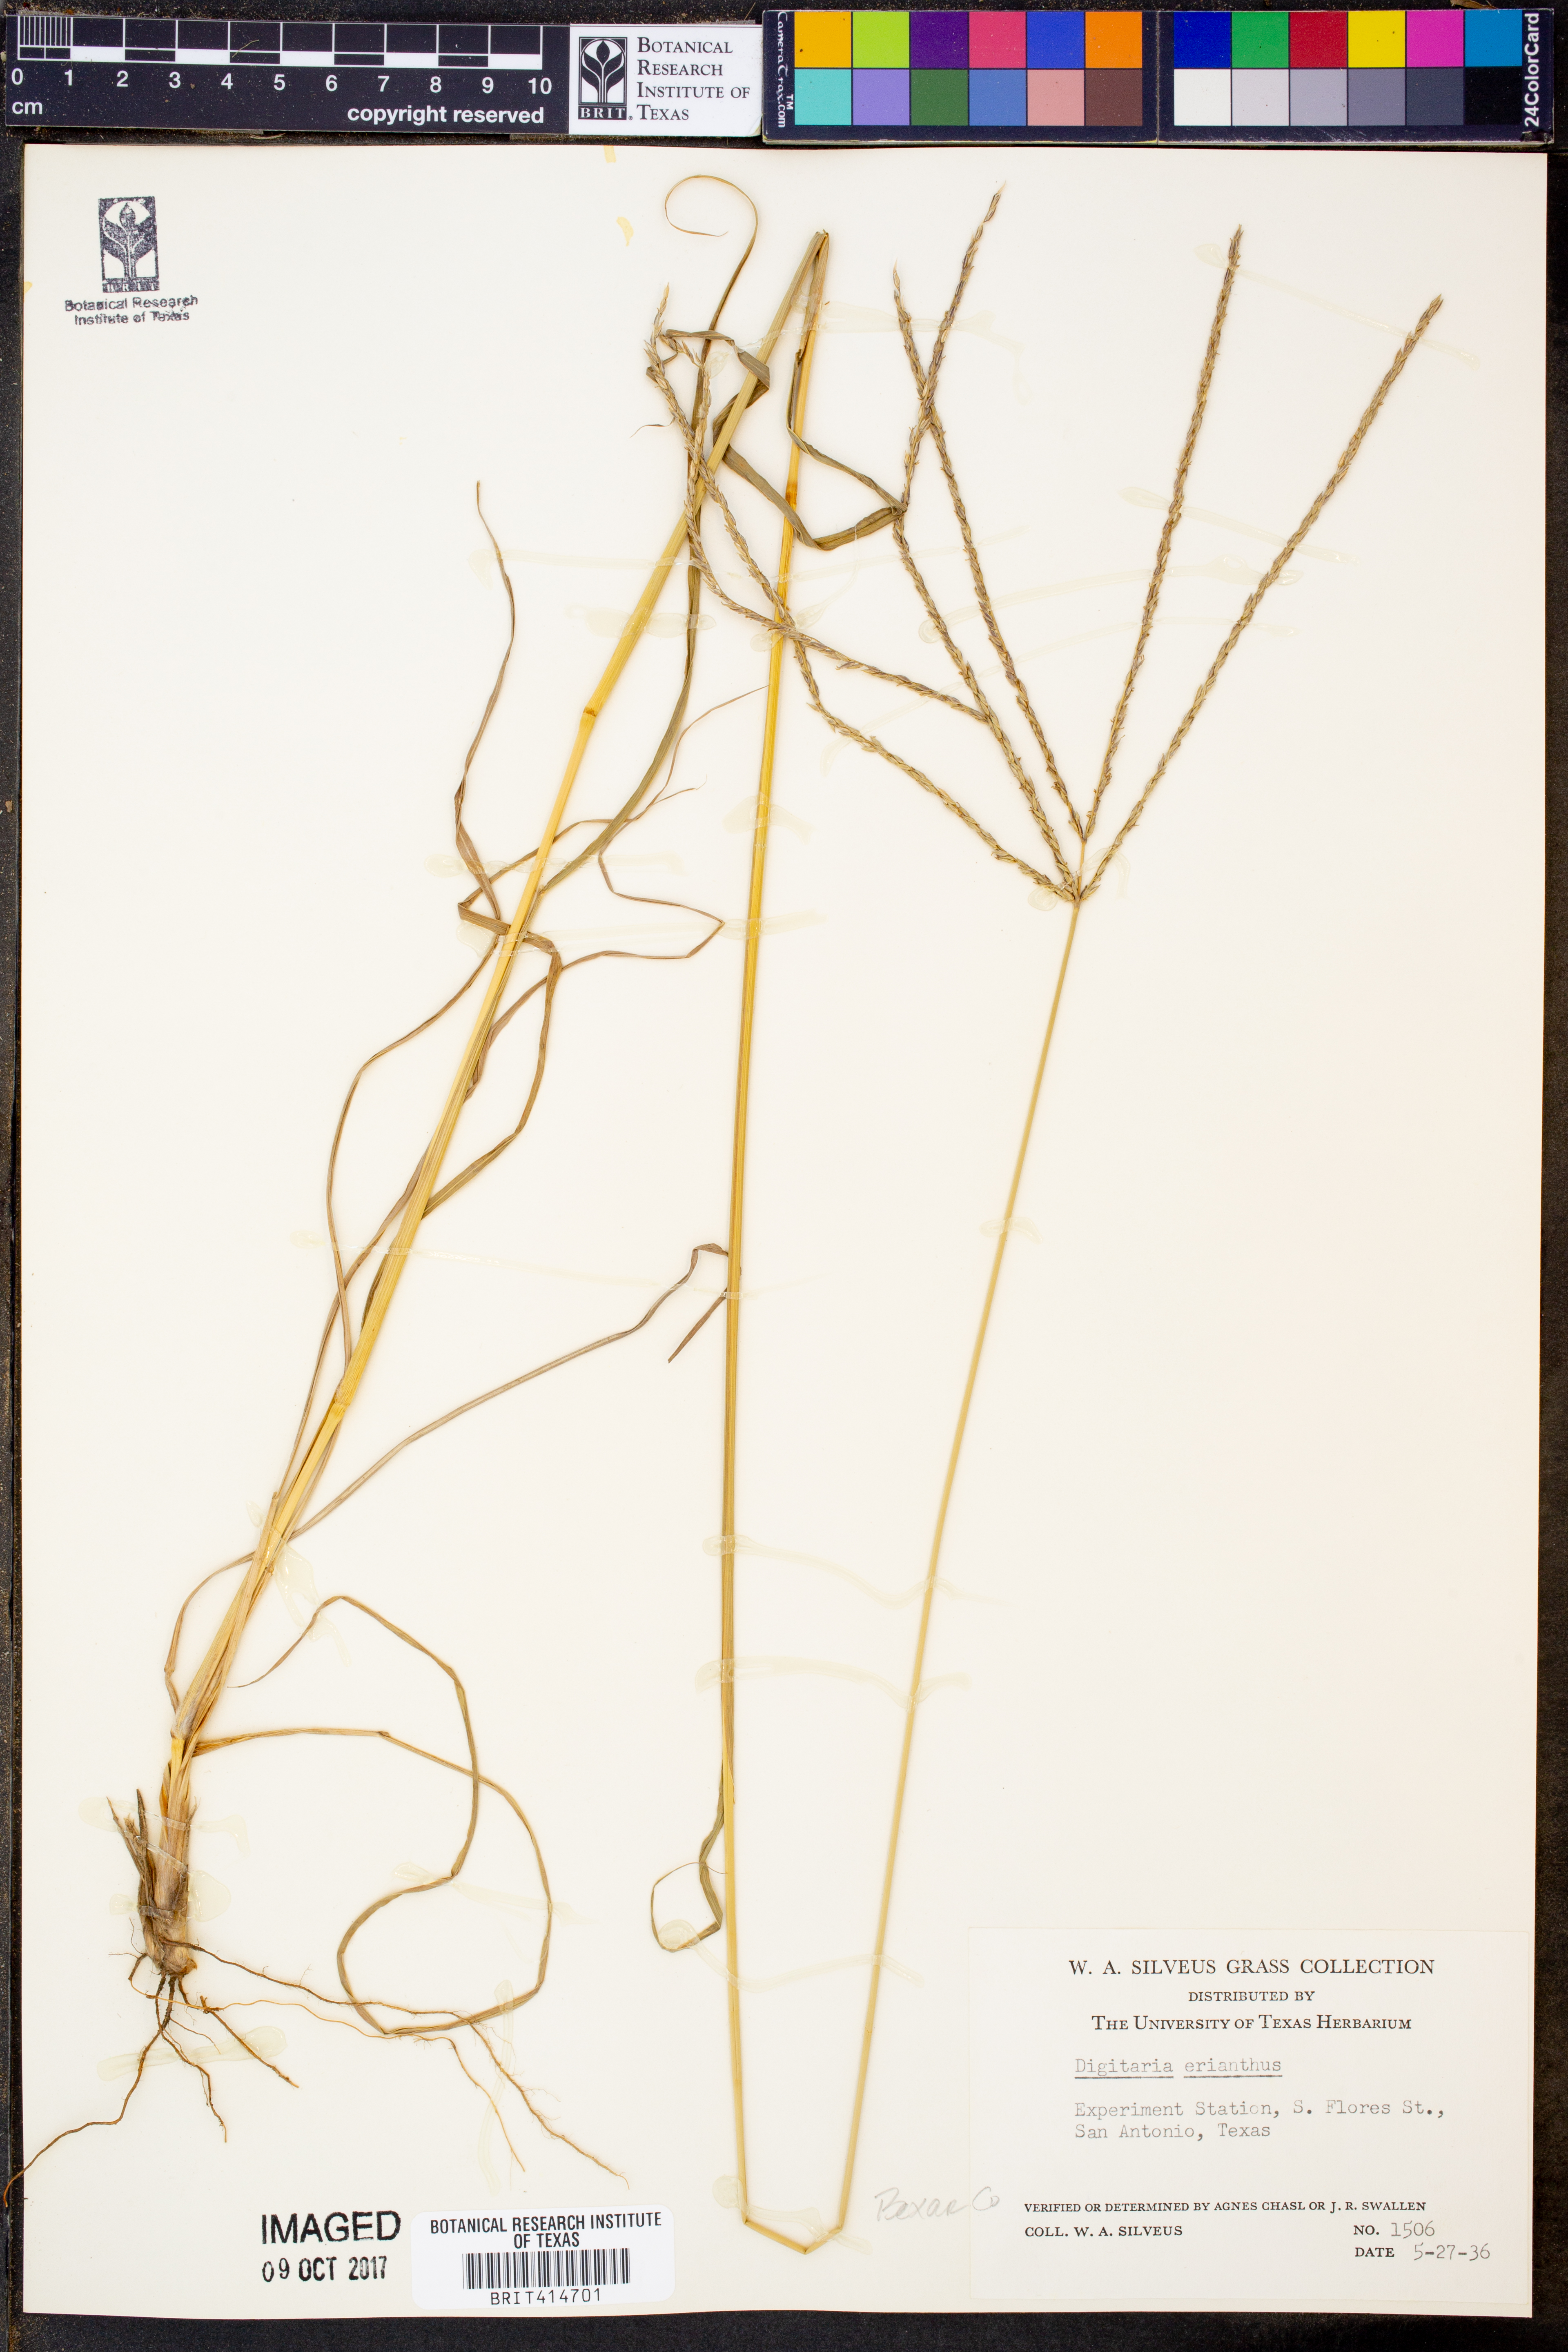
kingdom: Plantae
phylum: Tracheophyta
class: Liliopsida
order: Poales
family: Poaceae
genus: Digitaria
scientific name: Digitaria eriantha
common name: Digitgrass
